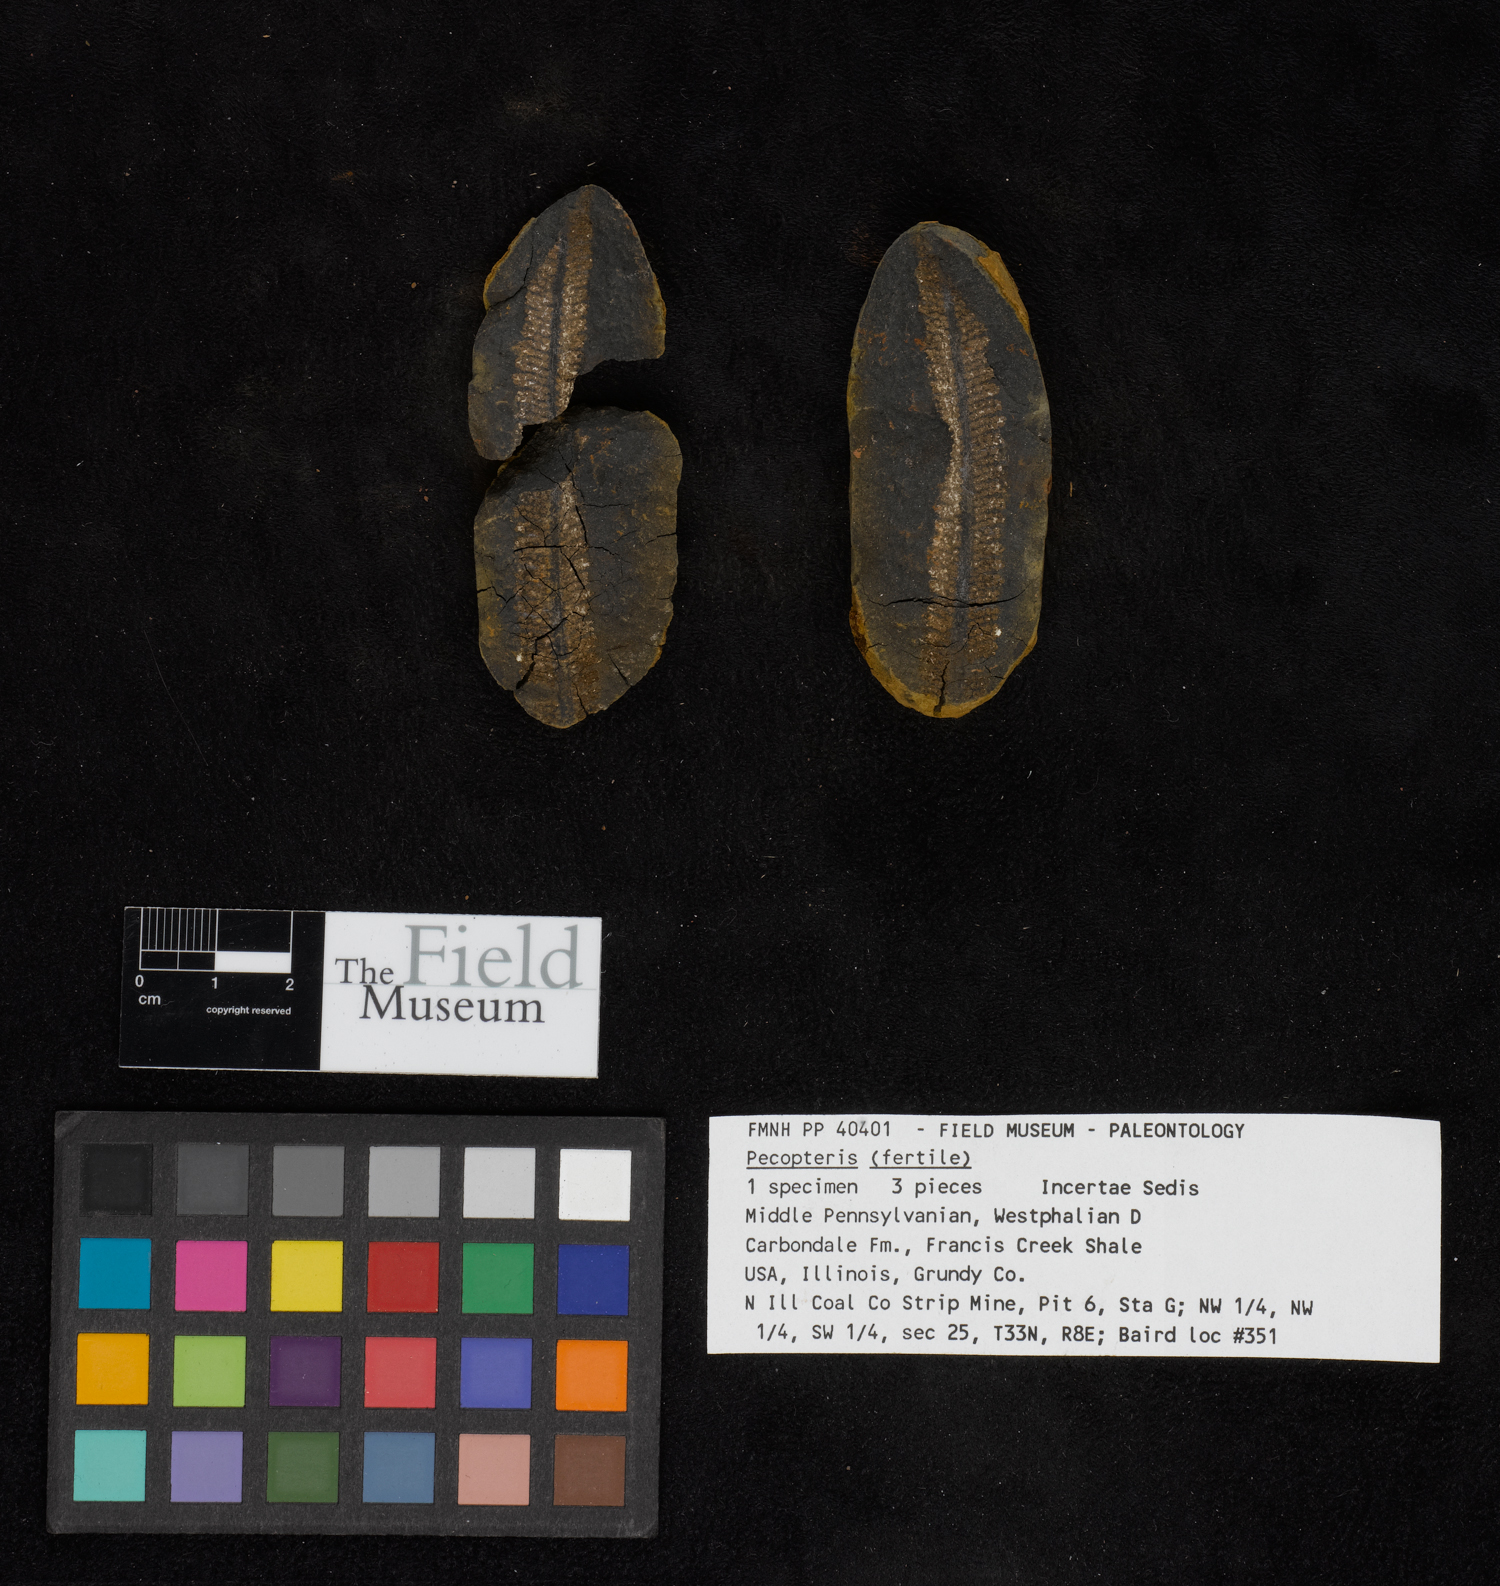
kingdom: Plantae
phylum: Tracheophyta
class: Polypodiopsida
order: Marattiales
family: Asterothecaceae
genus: Pecopteris
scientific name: Pecopteris
